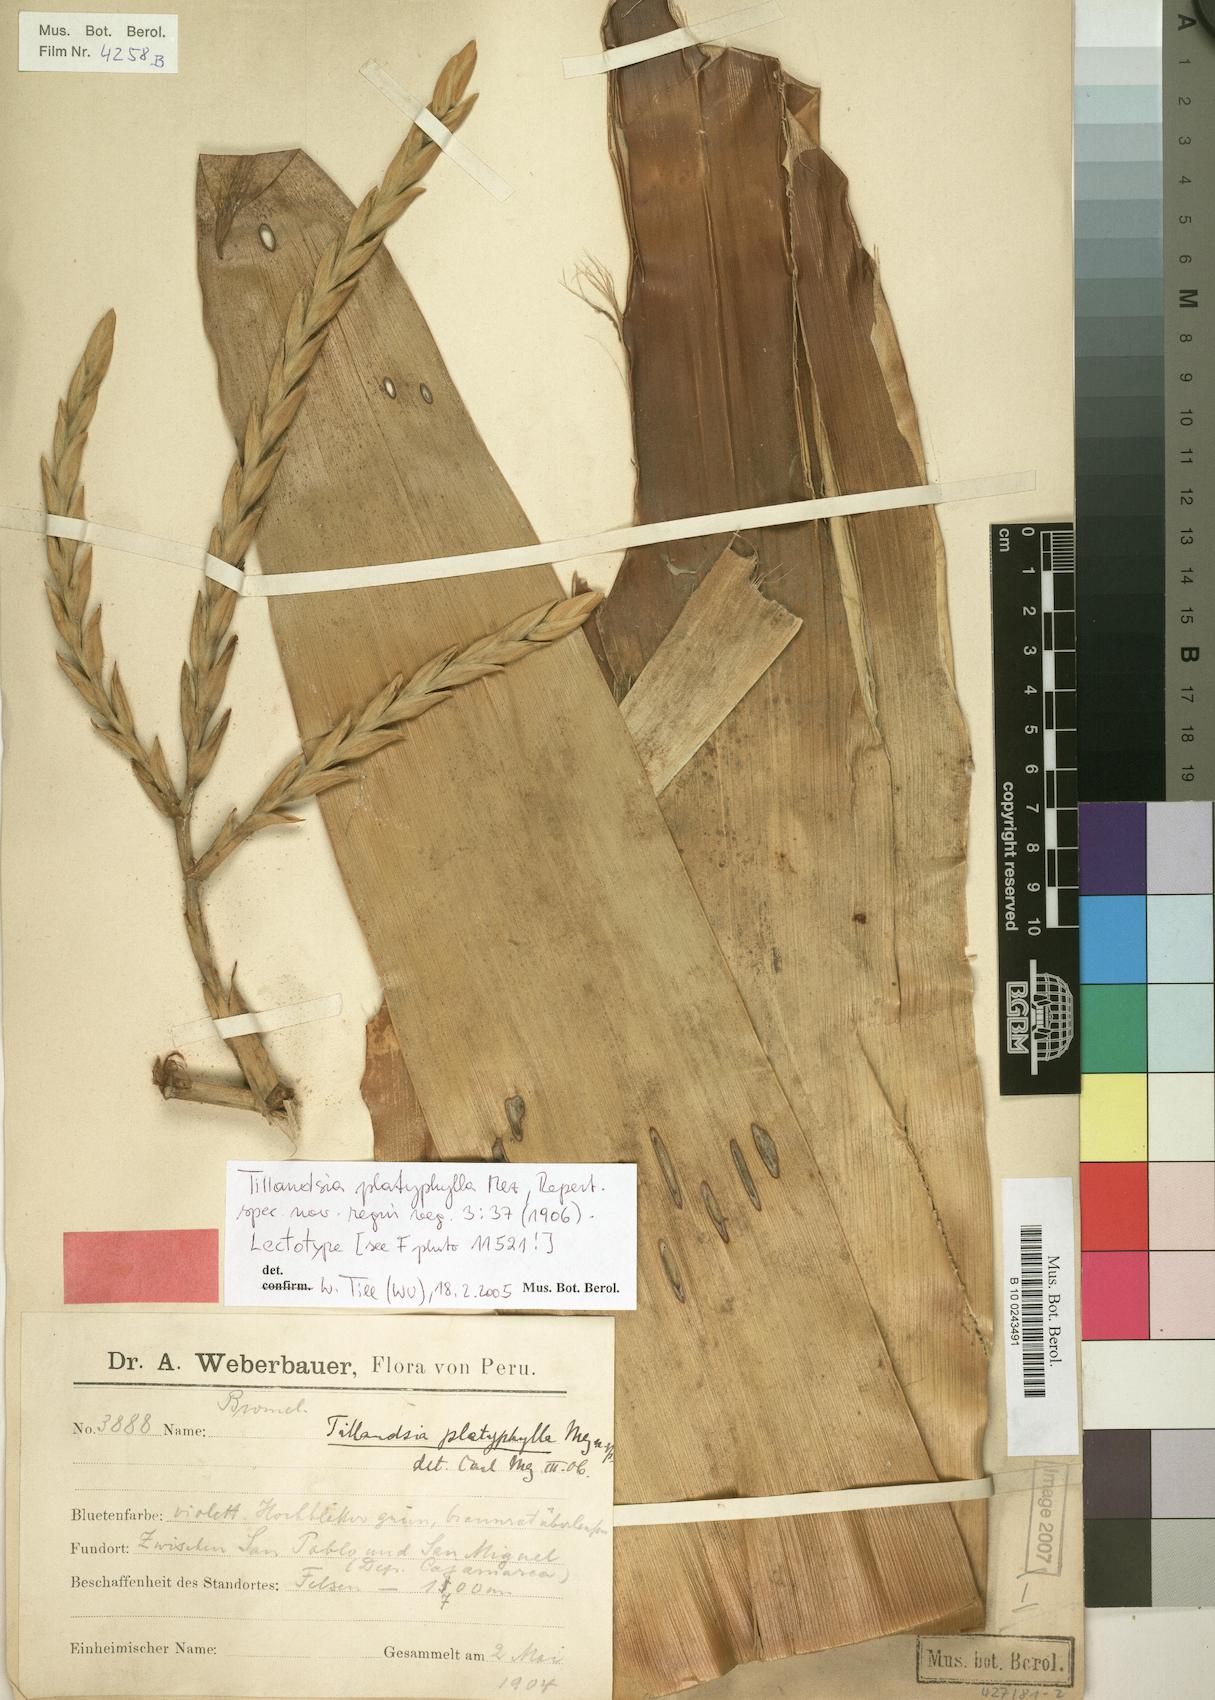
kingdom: Plantae
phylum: Tracheophyta
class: Liliopsida
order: Poales
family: Bromeliaceae
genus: Tillandsia
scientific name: Tillandsia platyphylla
